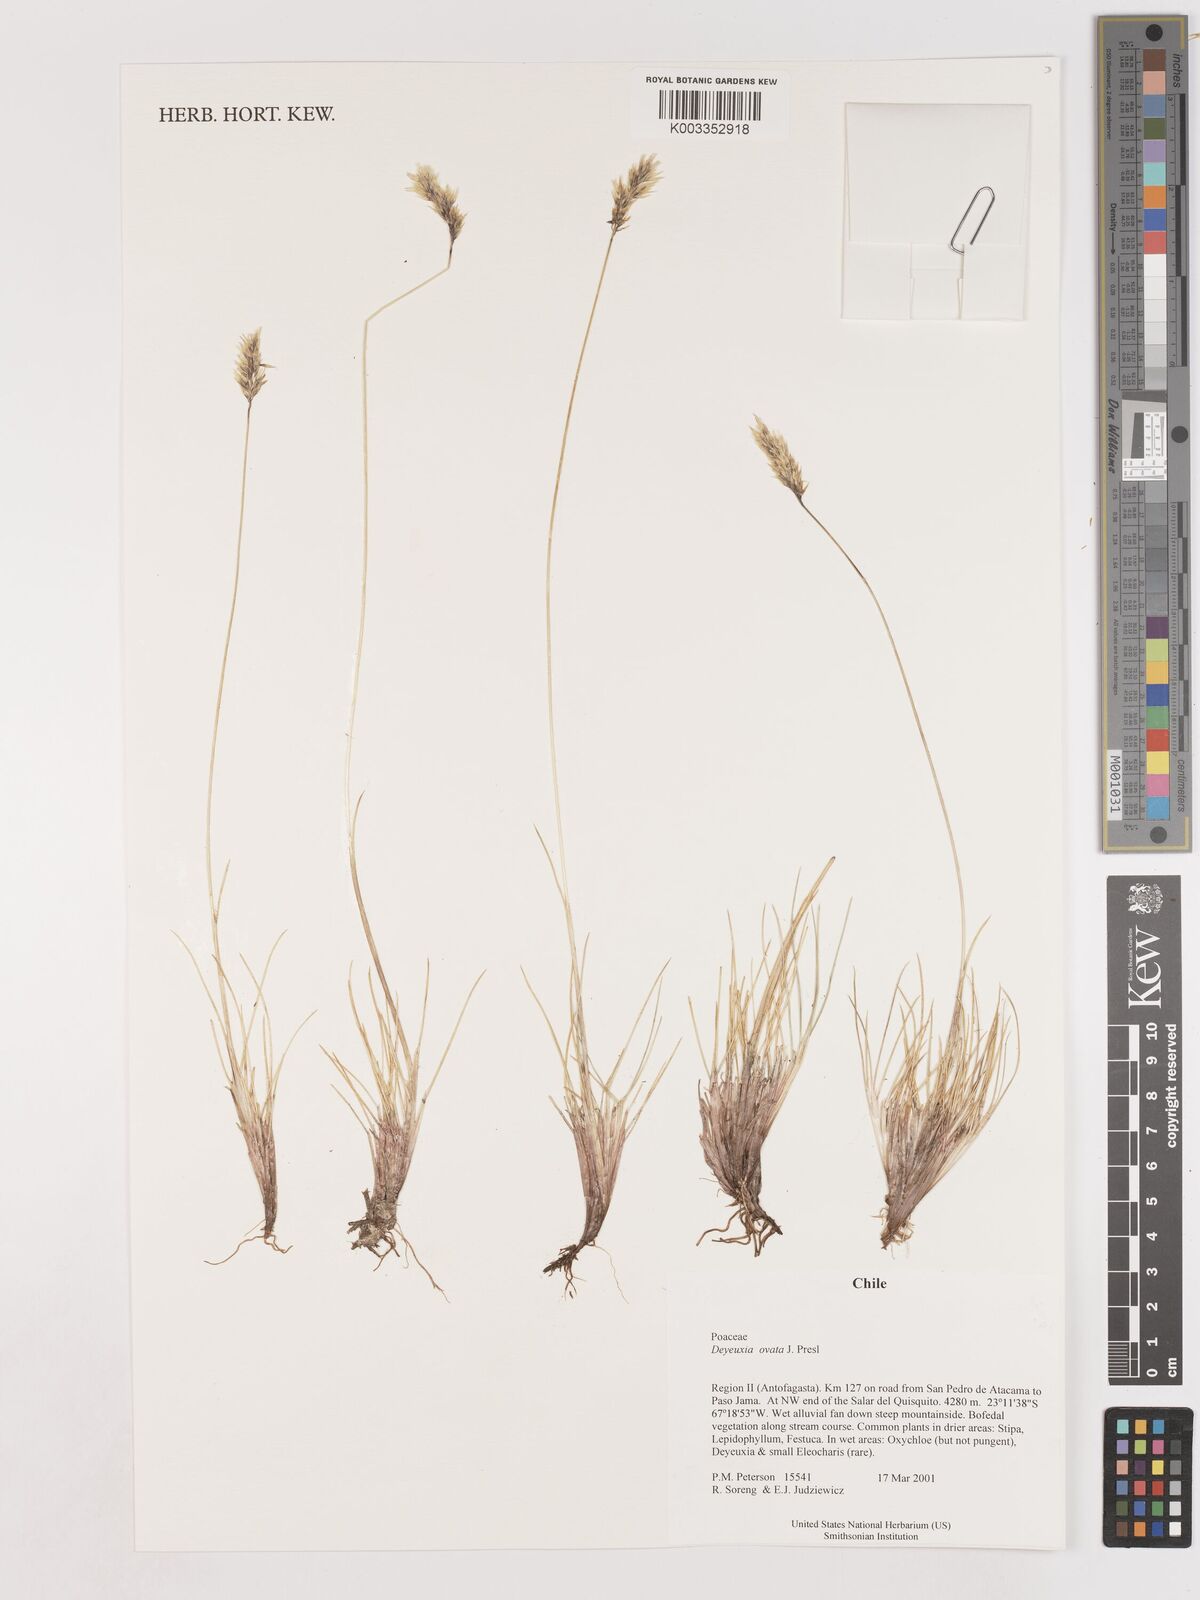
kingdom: Plantae
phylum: Tracheophyta
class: Liliopsida
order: Poales
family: Poaceae
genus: Deschampsia
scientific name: Deschampsia ovata
